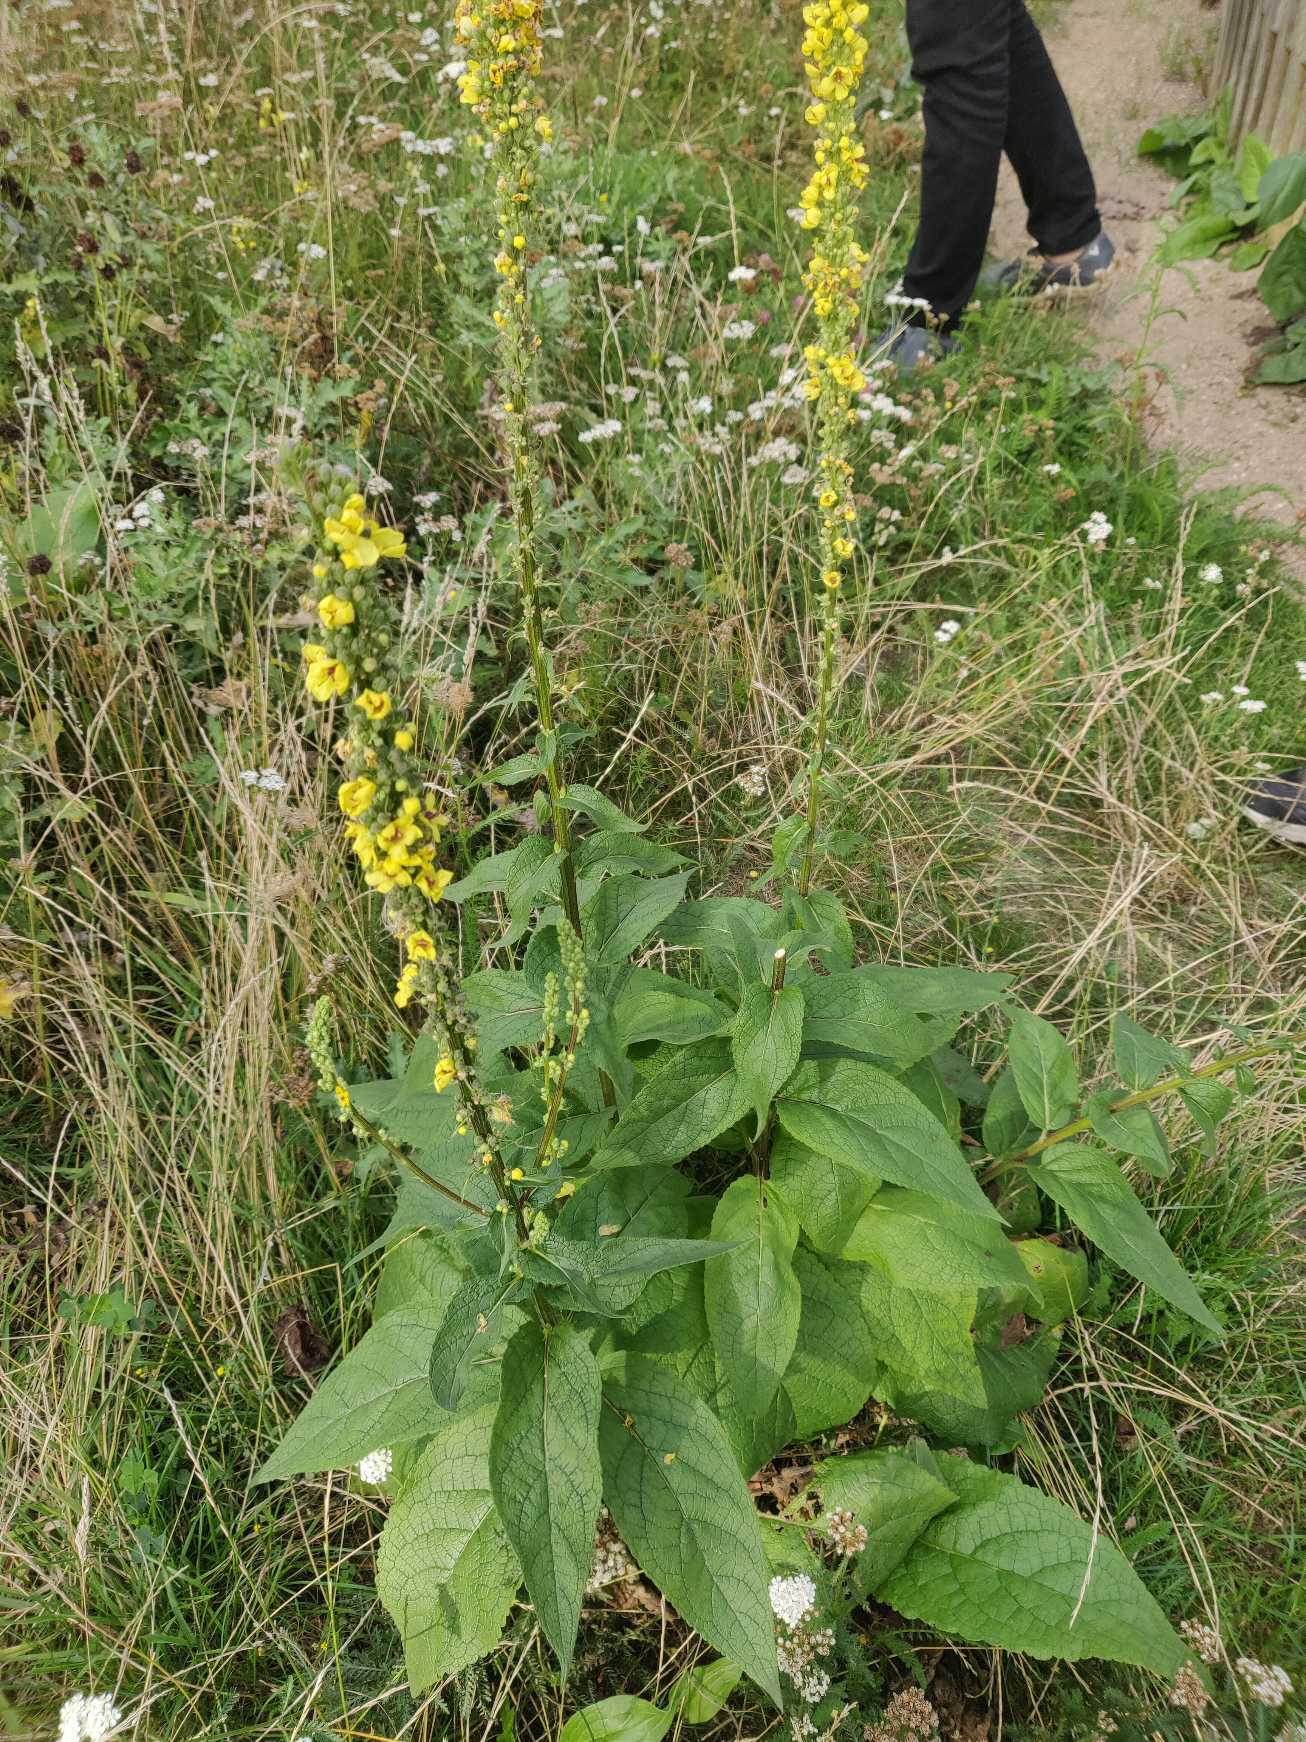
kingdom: Plantae
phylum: Tracheophyta
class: Magnoliopsida
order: Lamiales
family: Scrophulariaceae
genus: Verbascum
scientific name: Verbascum nigrum
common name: Mørk kongelys
